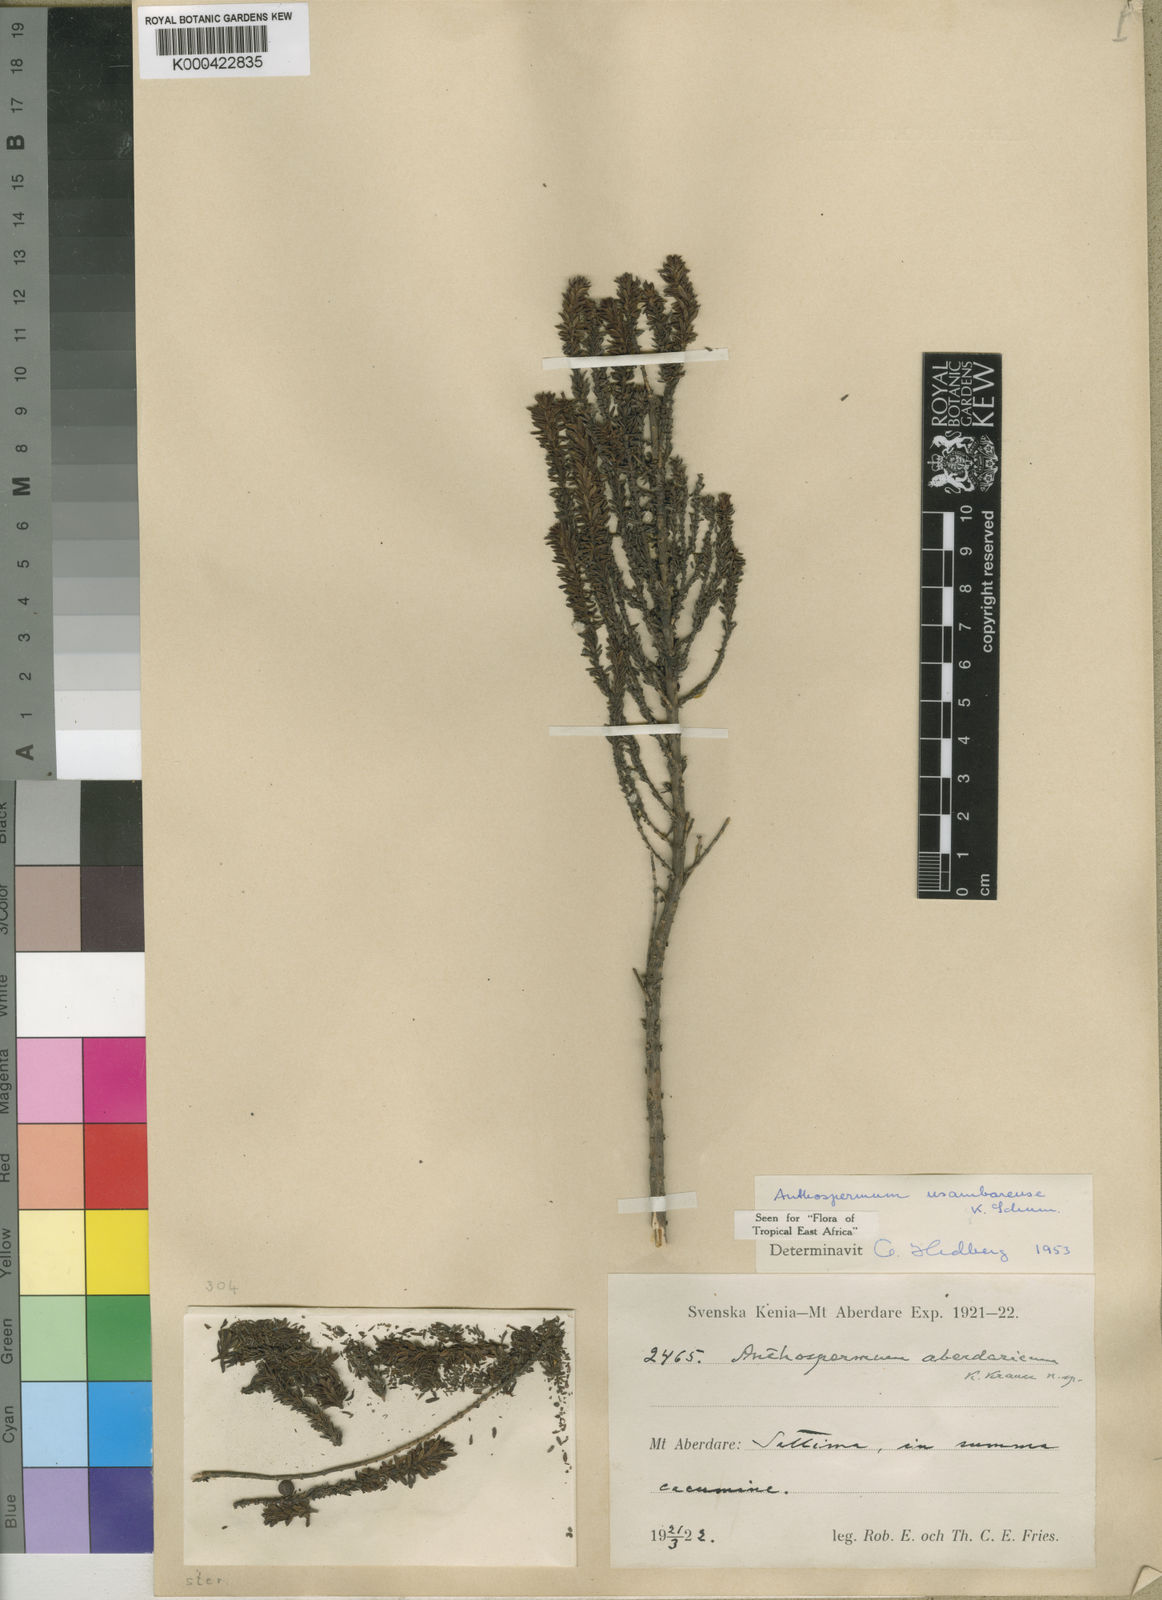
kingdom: Plantae
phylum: Tracheophyta
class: Magnoliopsida
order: Gentianales
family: Rubiaceae
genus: Anthospermum
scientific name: Anthospermum usambarense
